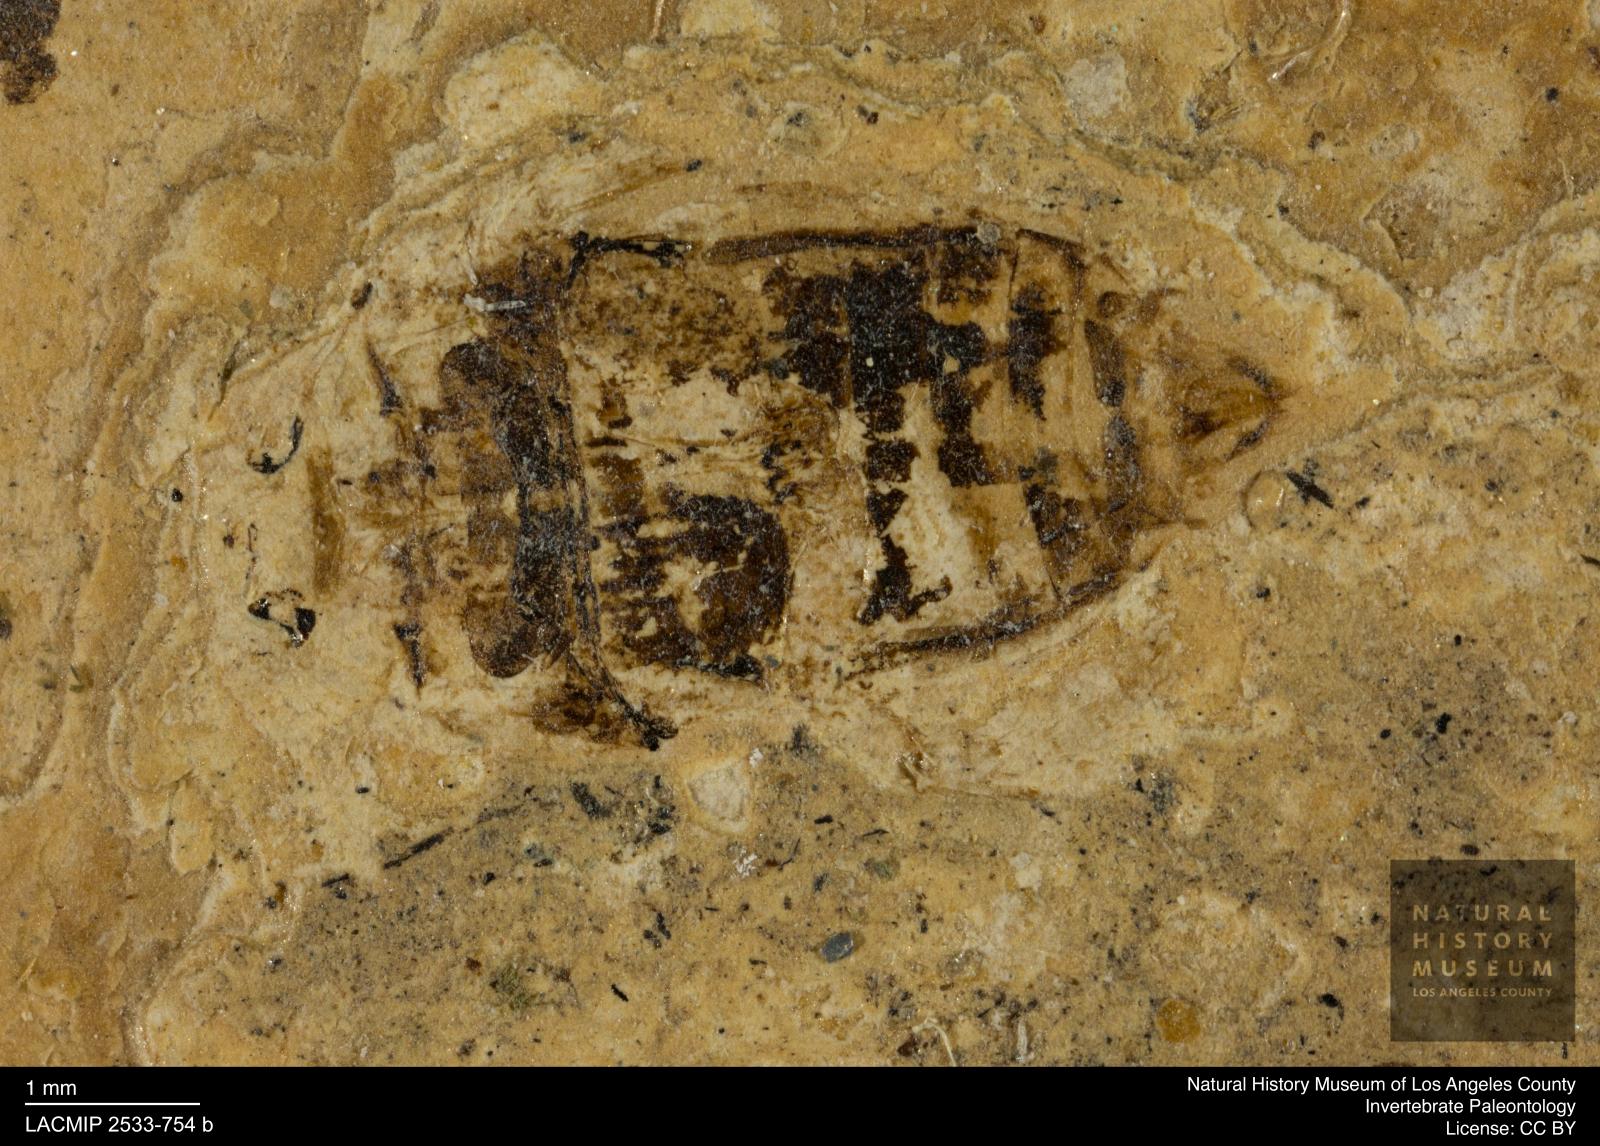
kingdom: Animalia
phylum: Arthropoda
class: Insecta
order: Coleoptera
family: Dytiscidae
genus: Laccophilus
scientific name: Laccophilus Palaeogyrinus strigatus
